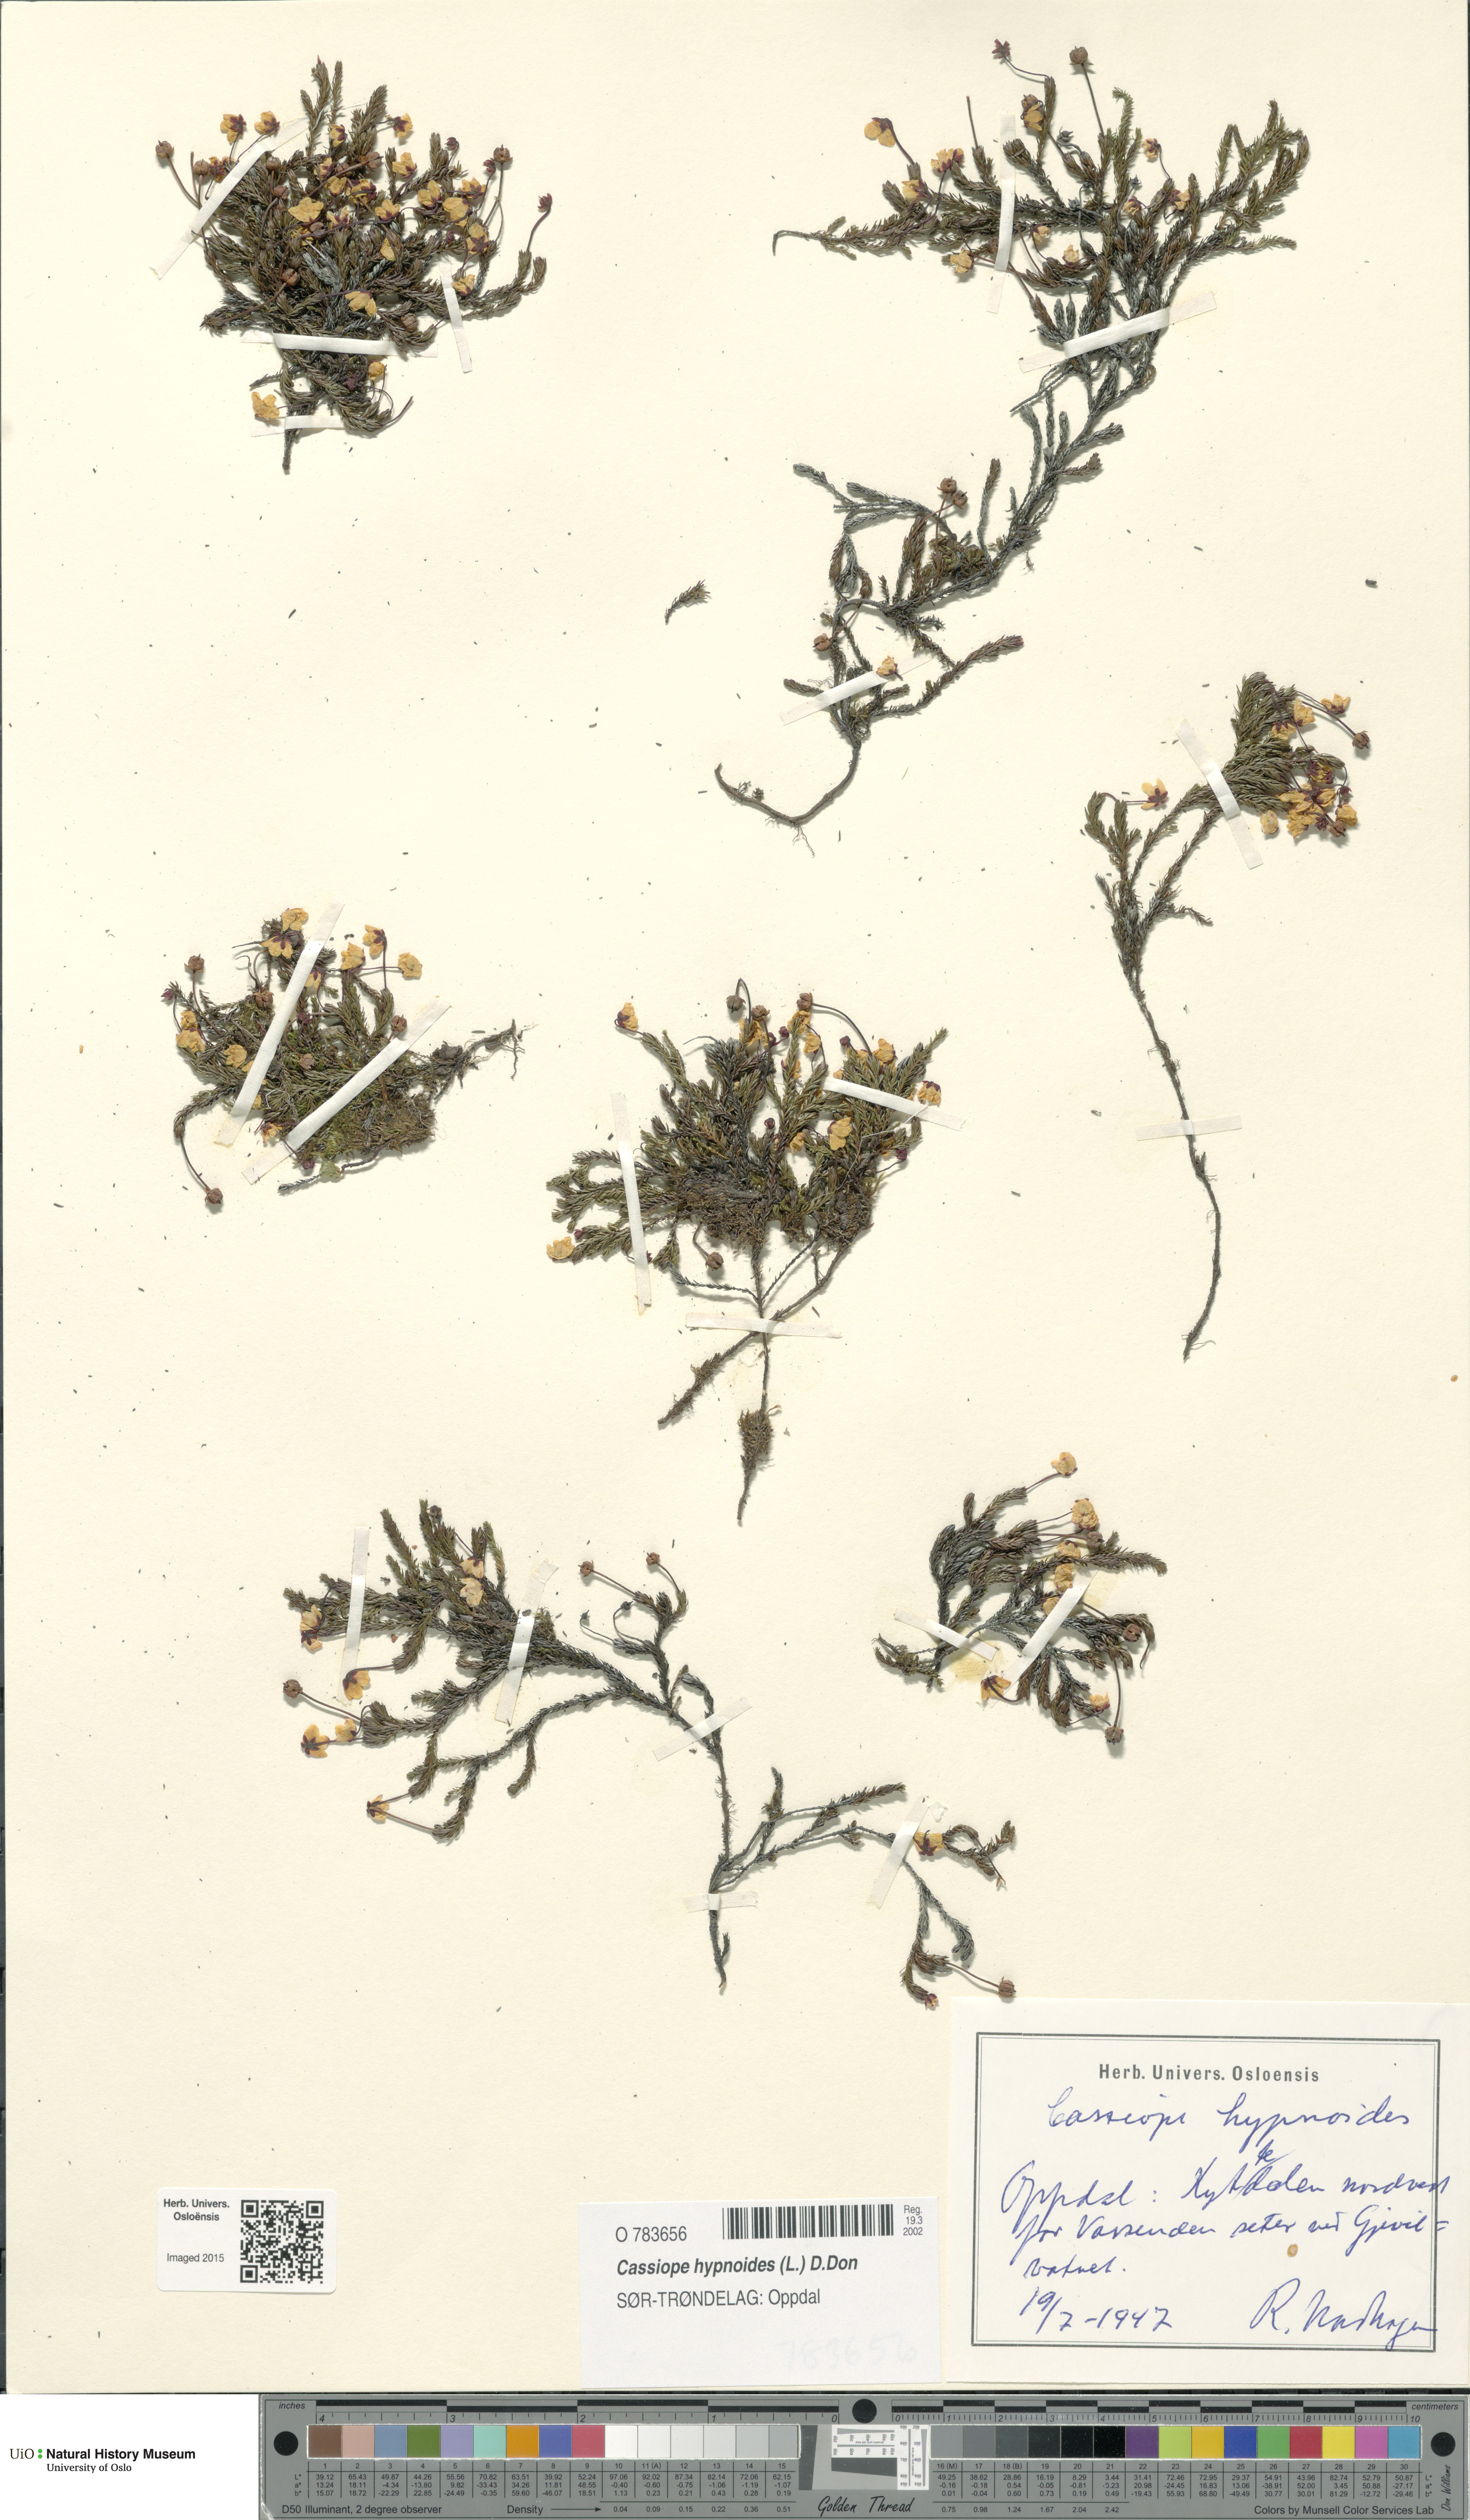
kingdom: Plantae
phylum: Tracheophyta
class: Magnoliopsida
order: Ericales
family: Ericaceae
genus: Harrimanella
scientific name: Harrimanella hypnoides
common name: Moss bell heather
